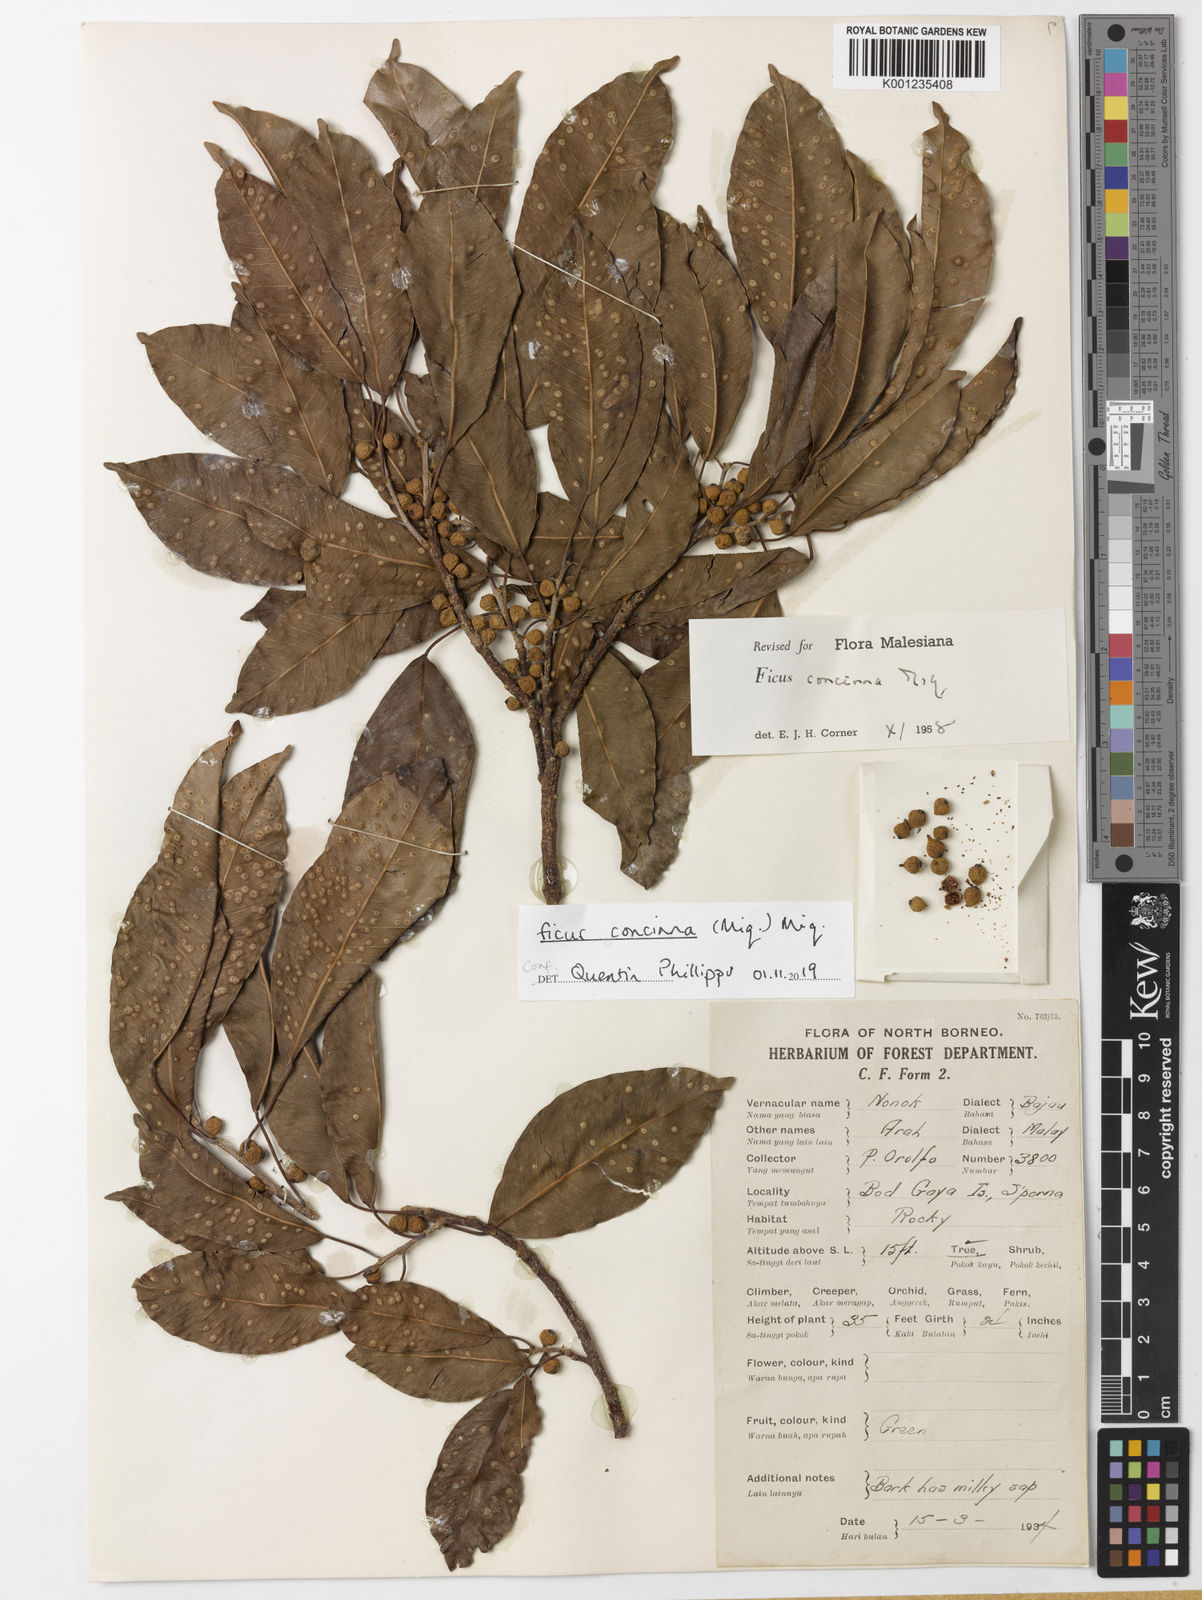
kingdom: Plantae
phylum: Tracheophyta
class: Magnoliopsida
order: Rosales
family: Moraceae
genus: Ficus
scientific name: Ficus concinna
